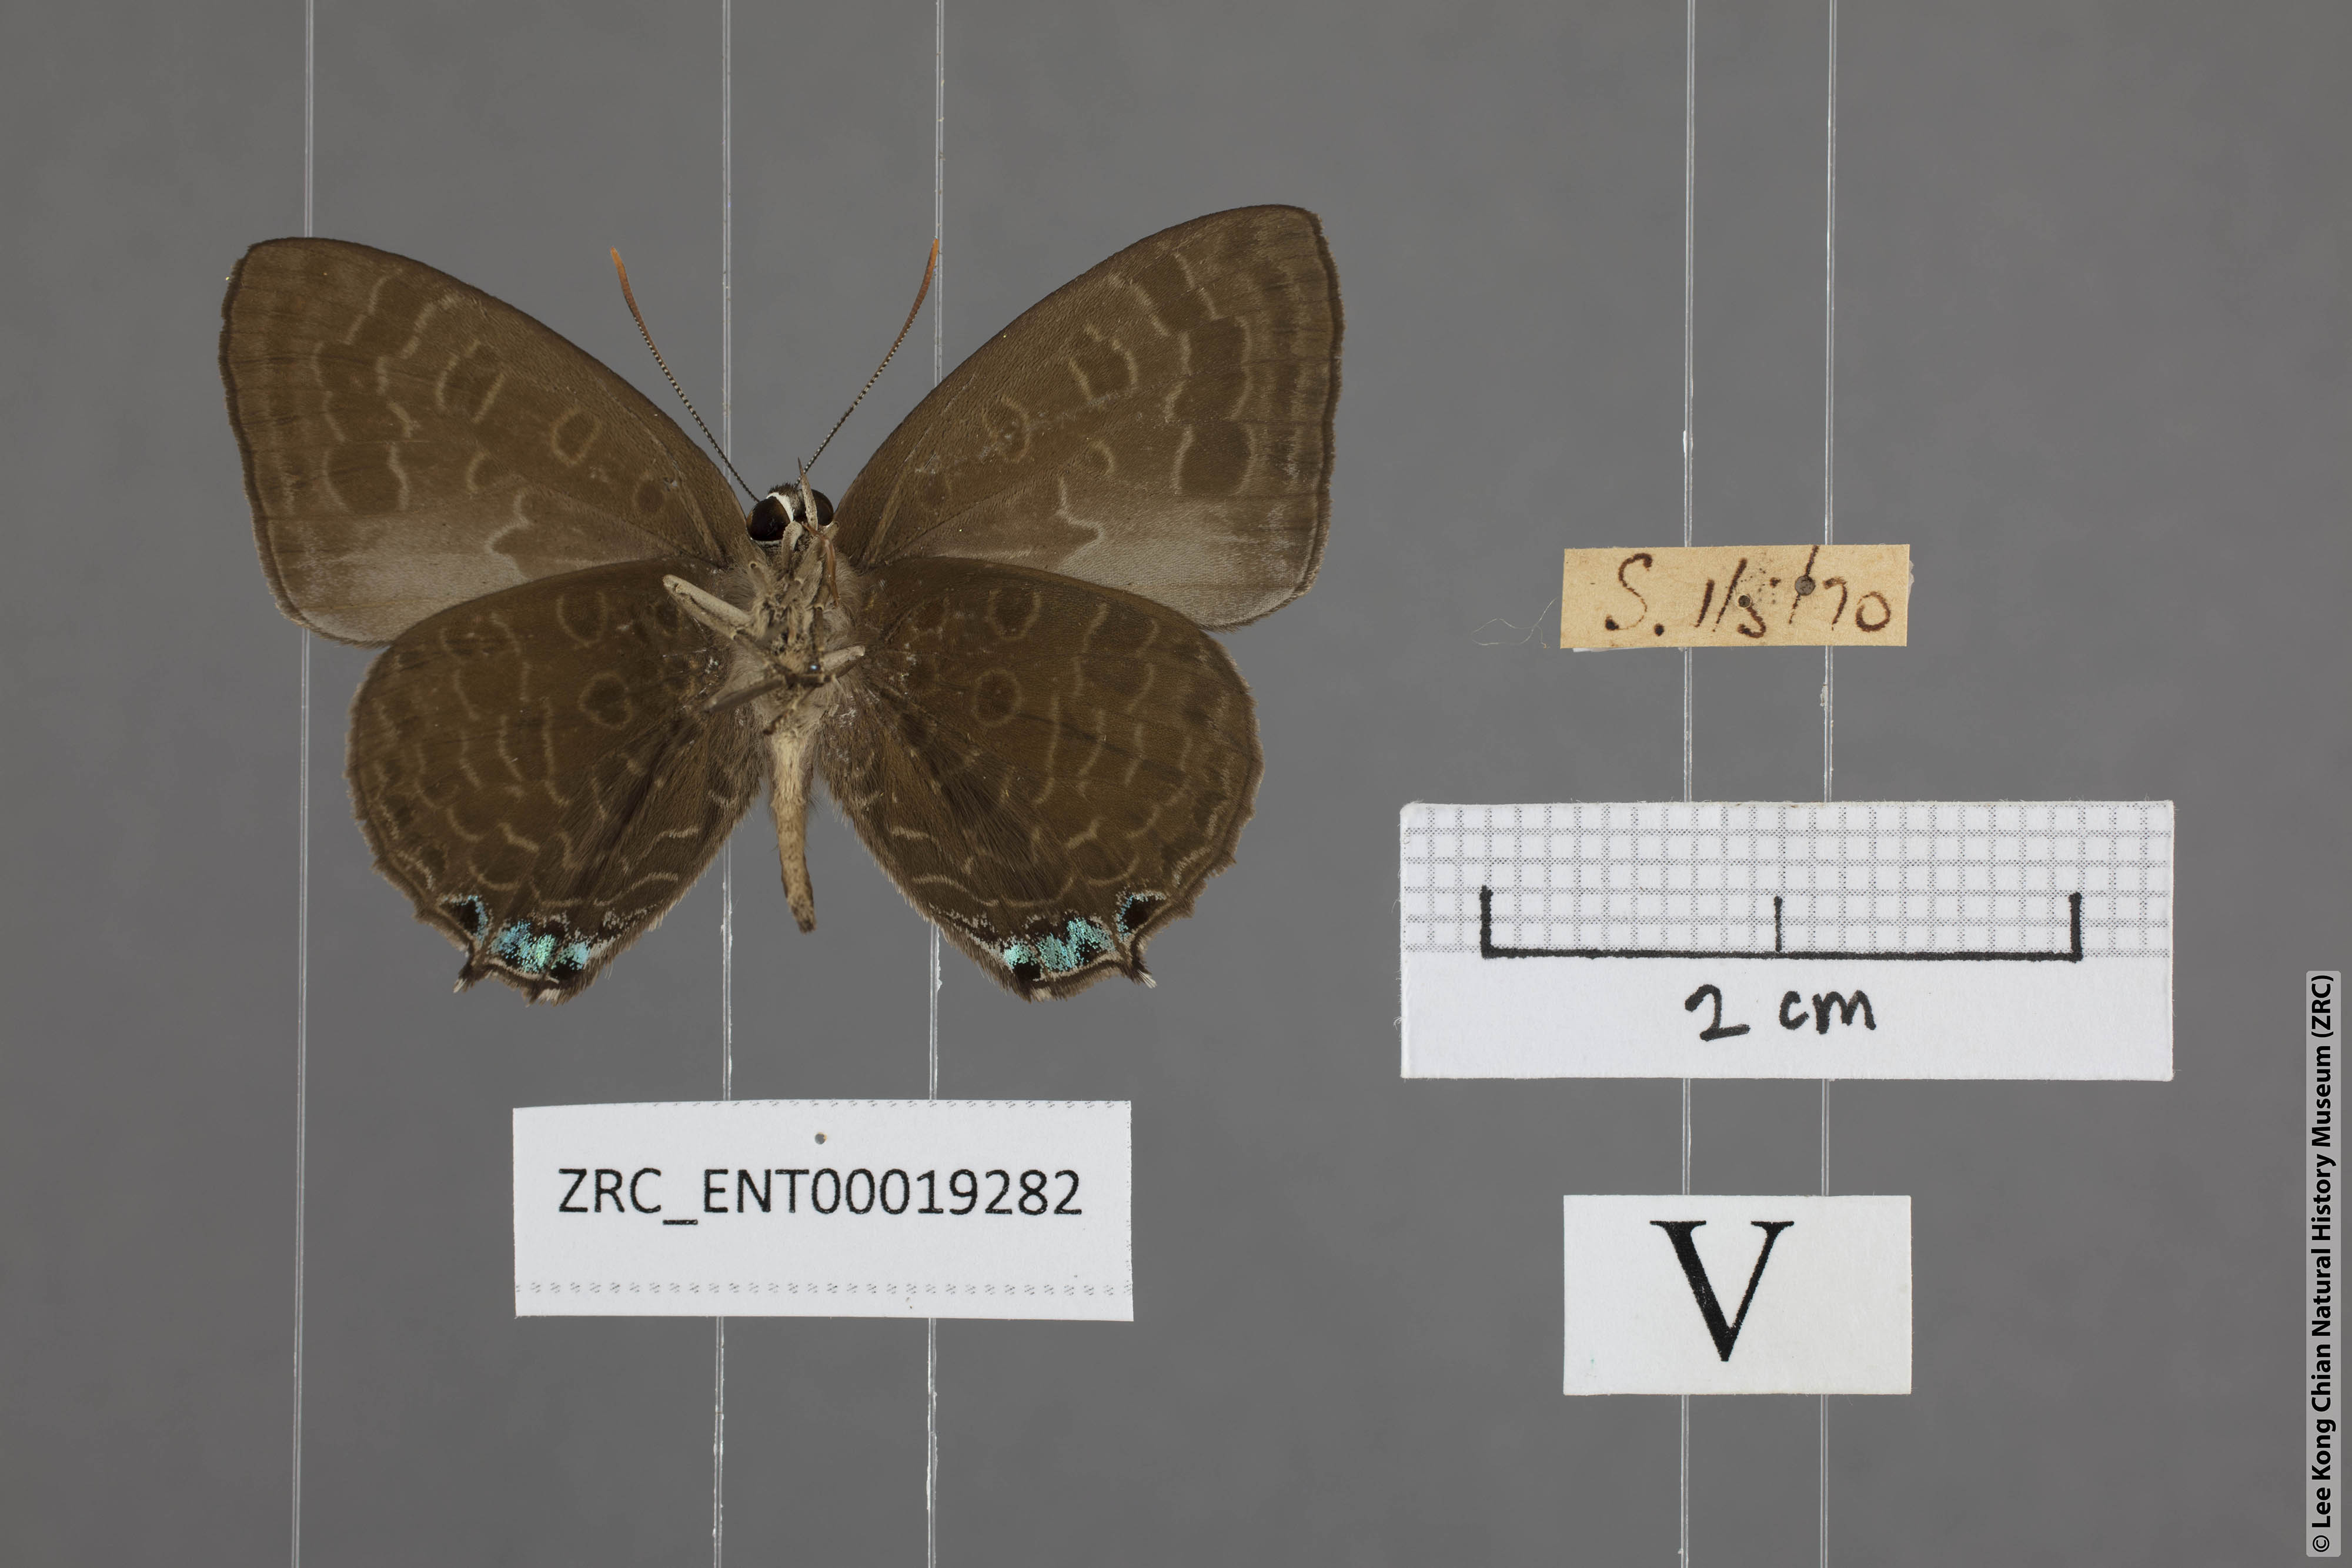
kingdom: Animalia
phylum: Arthropoda
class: Insecta
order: Lepidoptera
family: Lycaenidae
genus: Arhopala
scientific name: Arhopala aurea
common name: Long-celled oakblue
